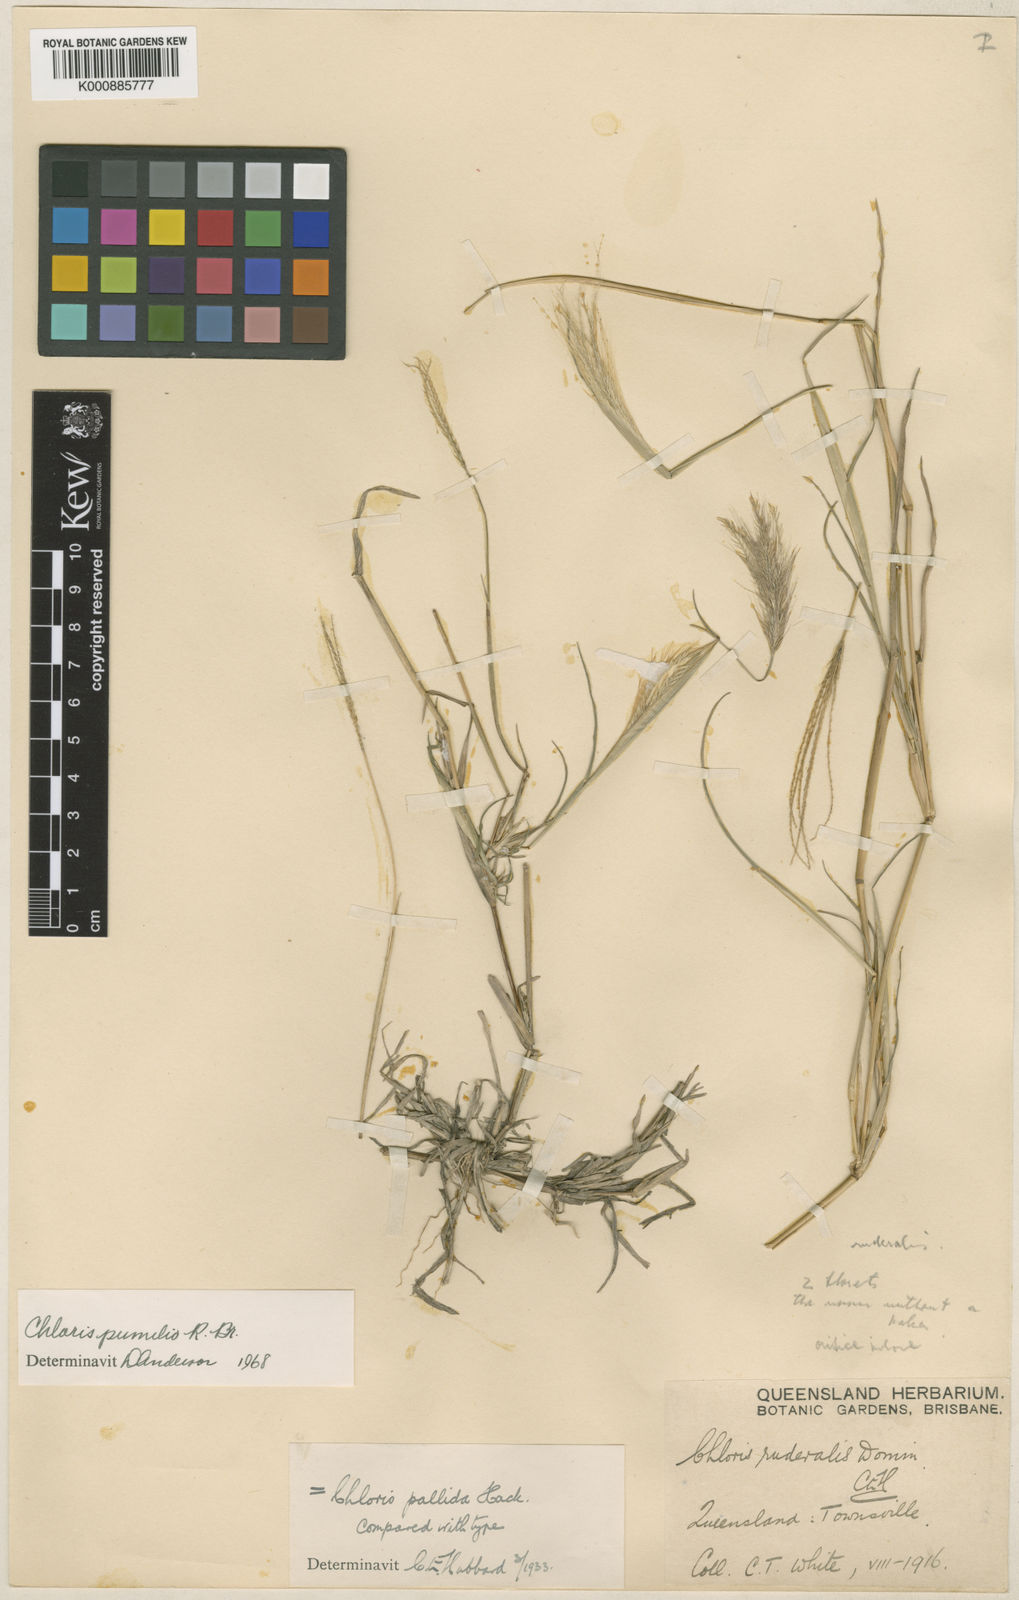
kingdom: Plantae
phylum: Tracheophyta
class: Liliopsida
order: Poales
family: Poaceae
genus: Chloris
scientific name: Chloris pumilio
